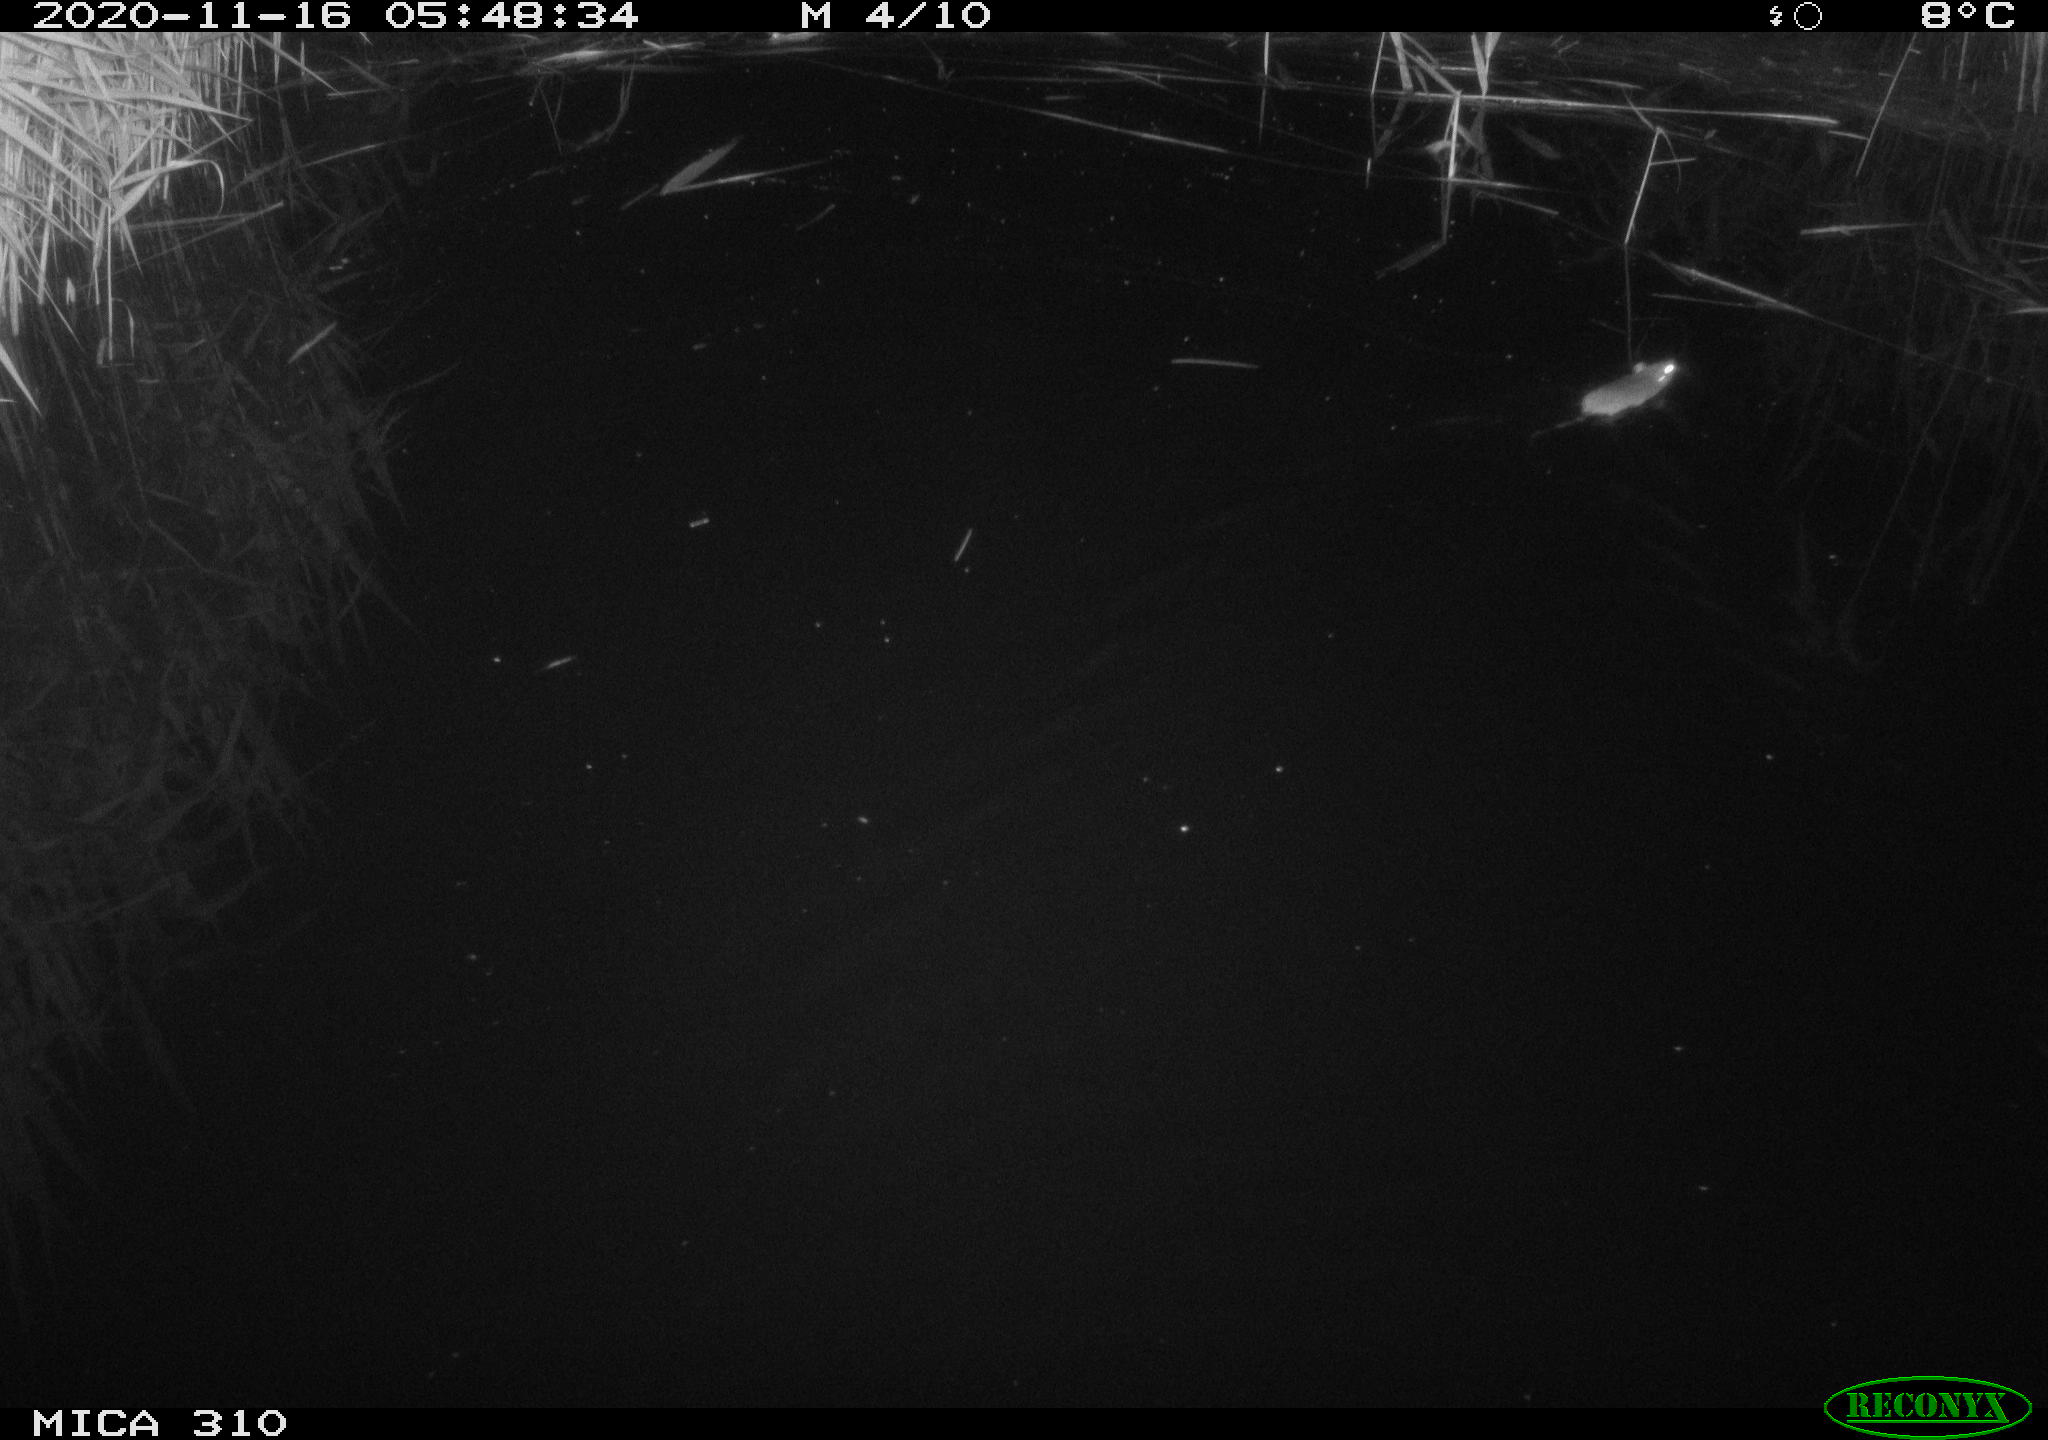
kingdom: Animalia
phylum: Chordata
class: Mammalia
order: Rodentia
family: Muridae
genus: Rattus
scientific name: Rattus norvegicus
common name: Brown rat
